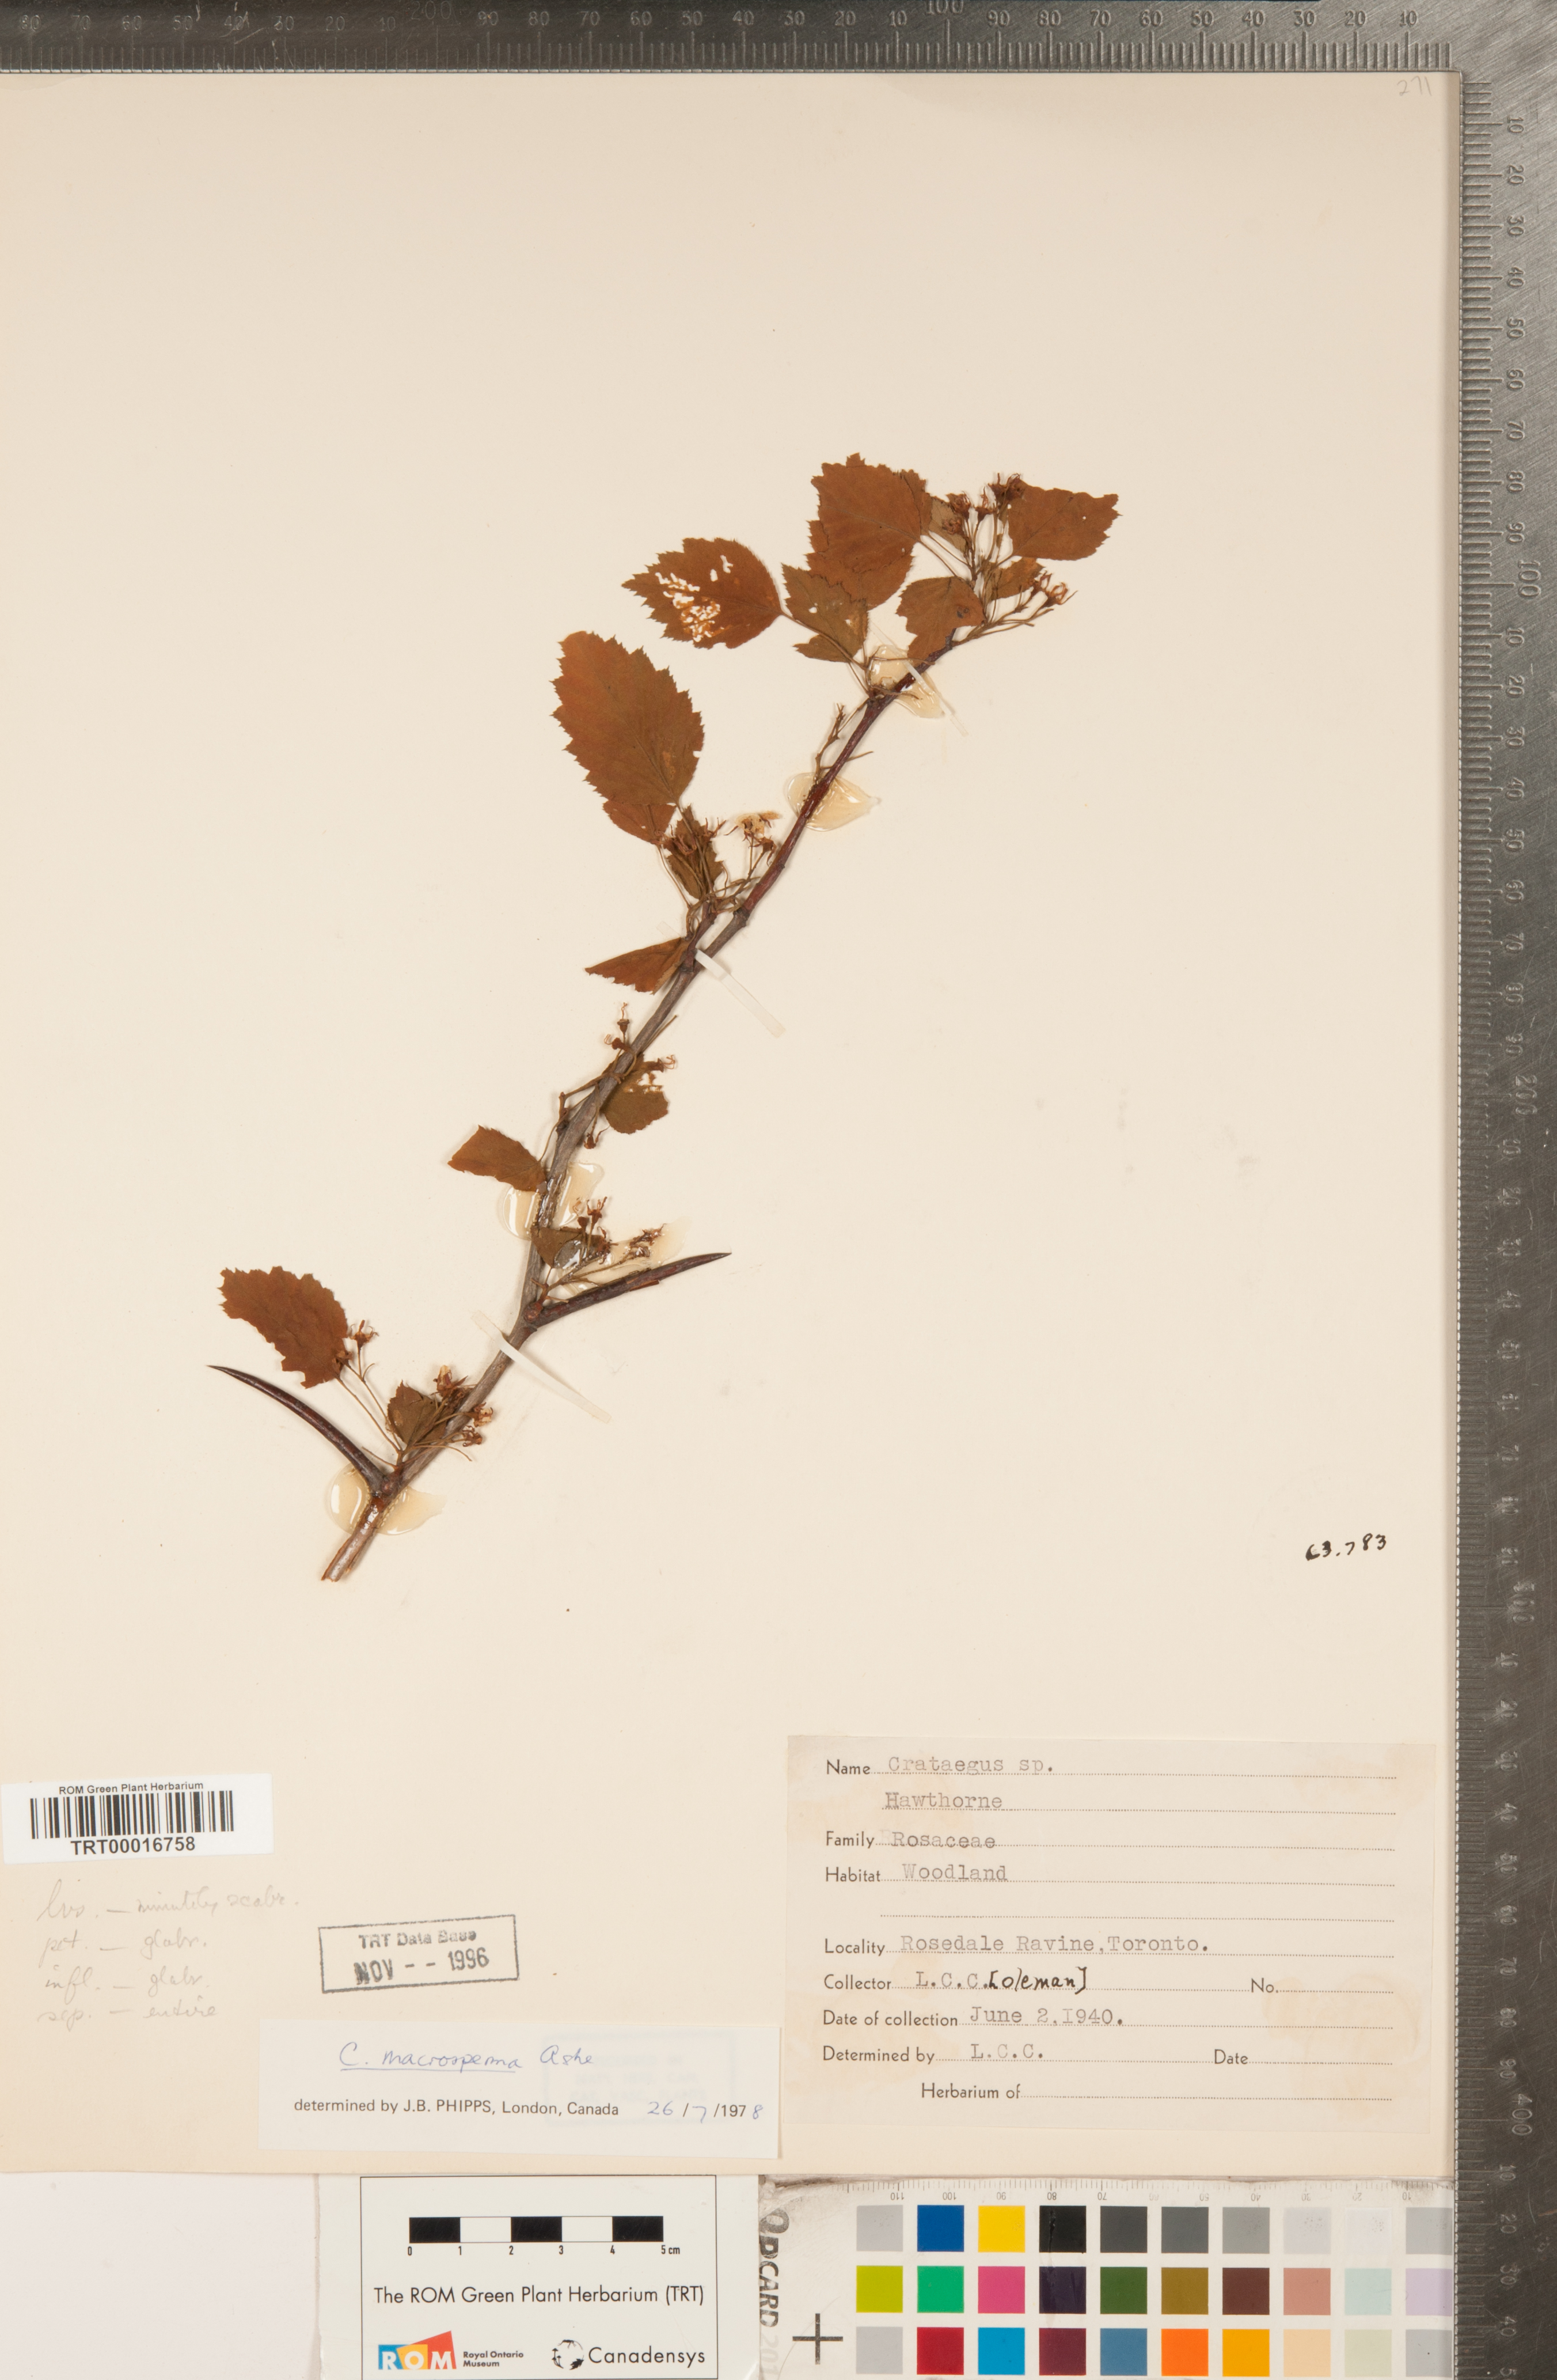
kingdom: Plantae
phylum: Tracheophyta
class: Magnoliopsida
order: Rosales
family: Rosaceae
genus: Crataegus
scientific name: Crataegus macrosperma
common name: Variable hawthorn
